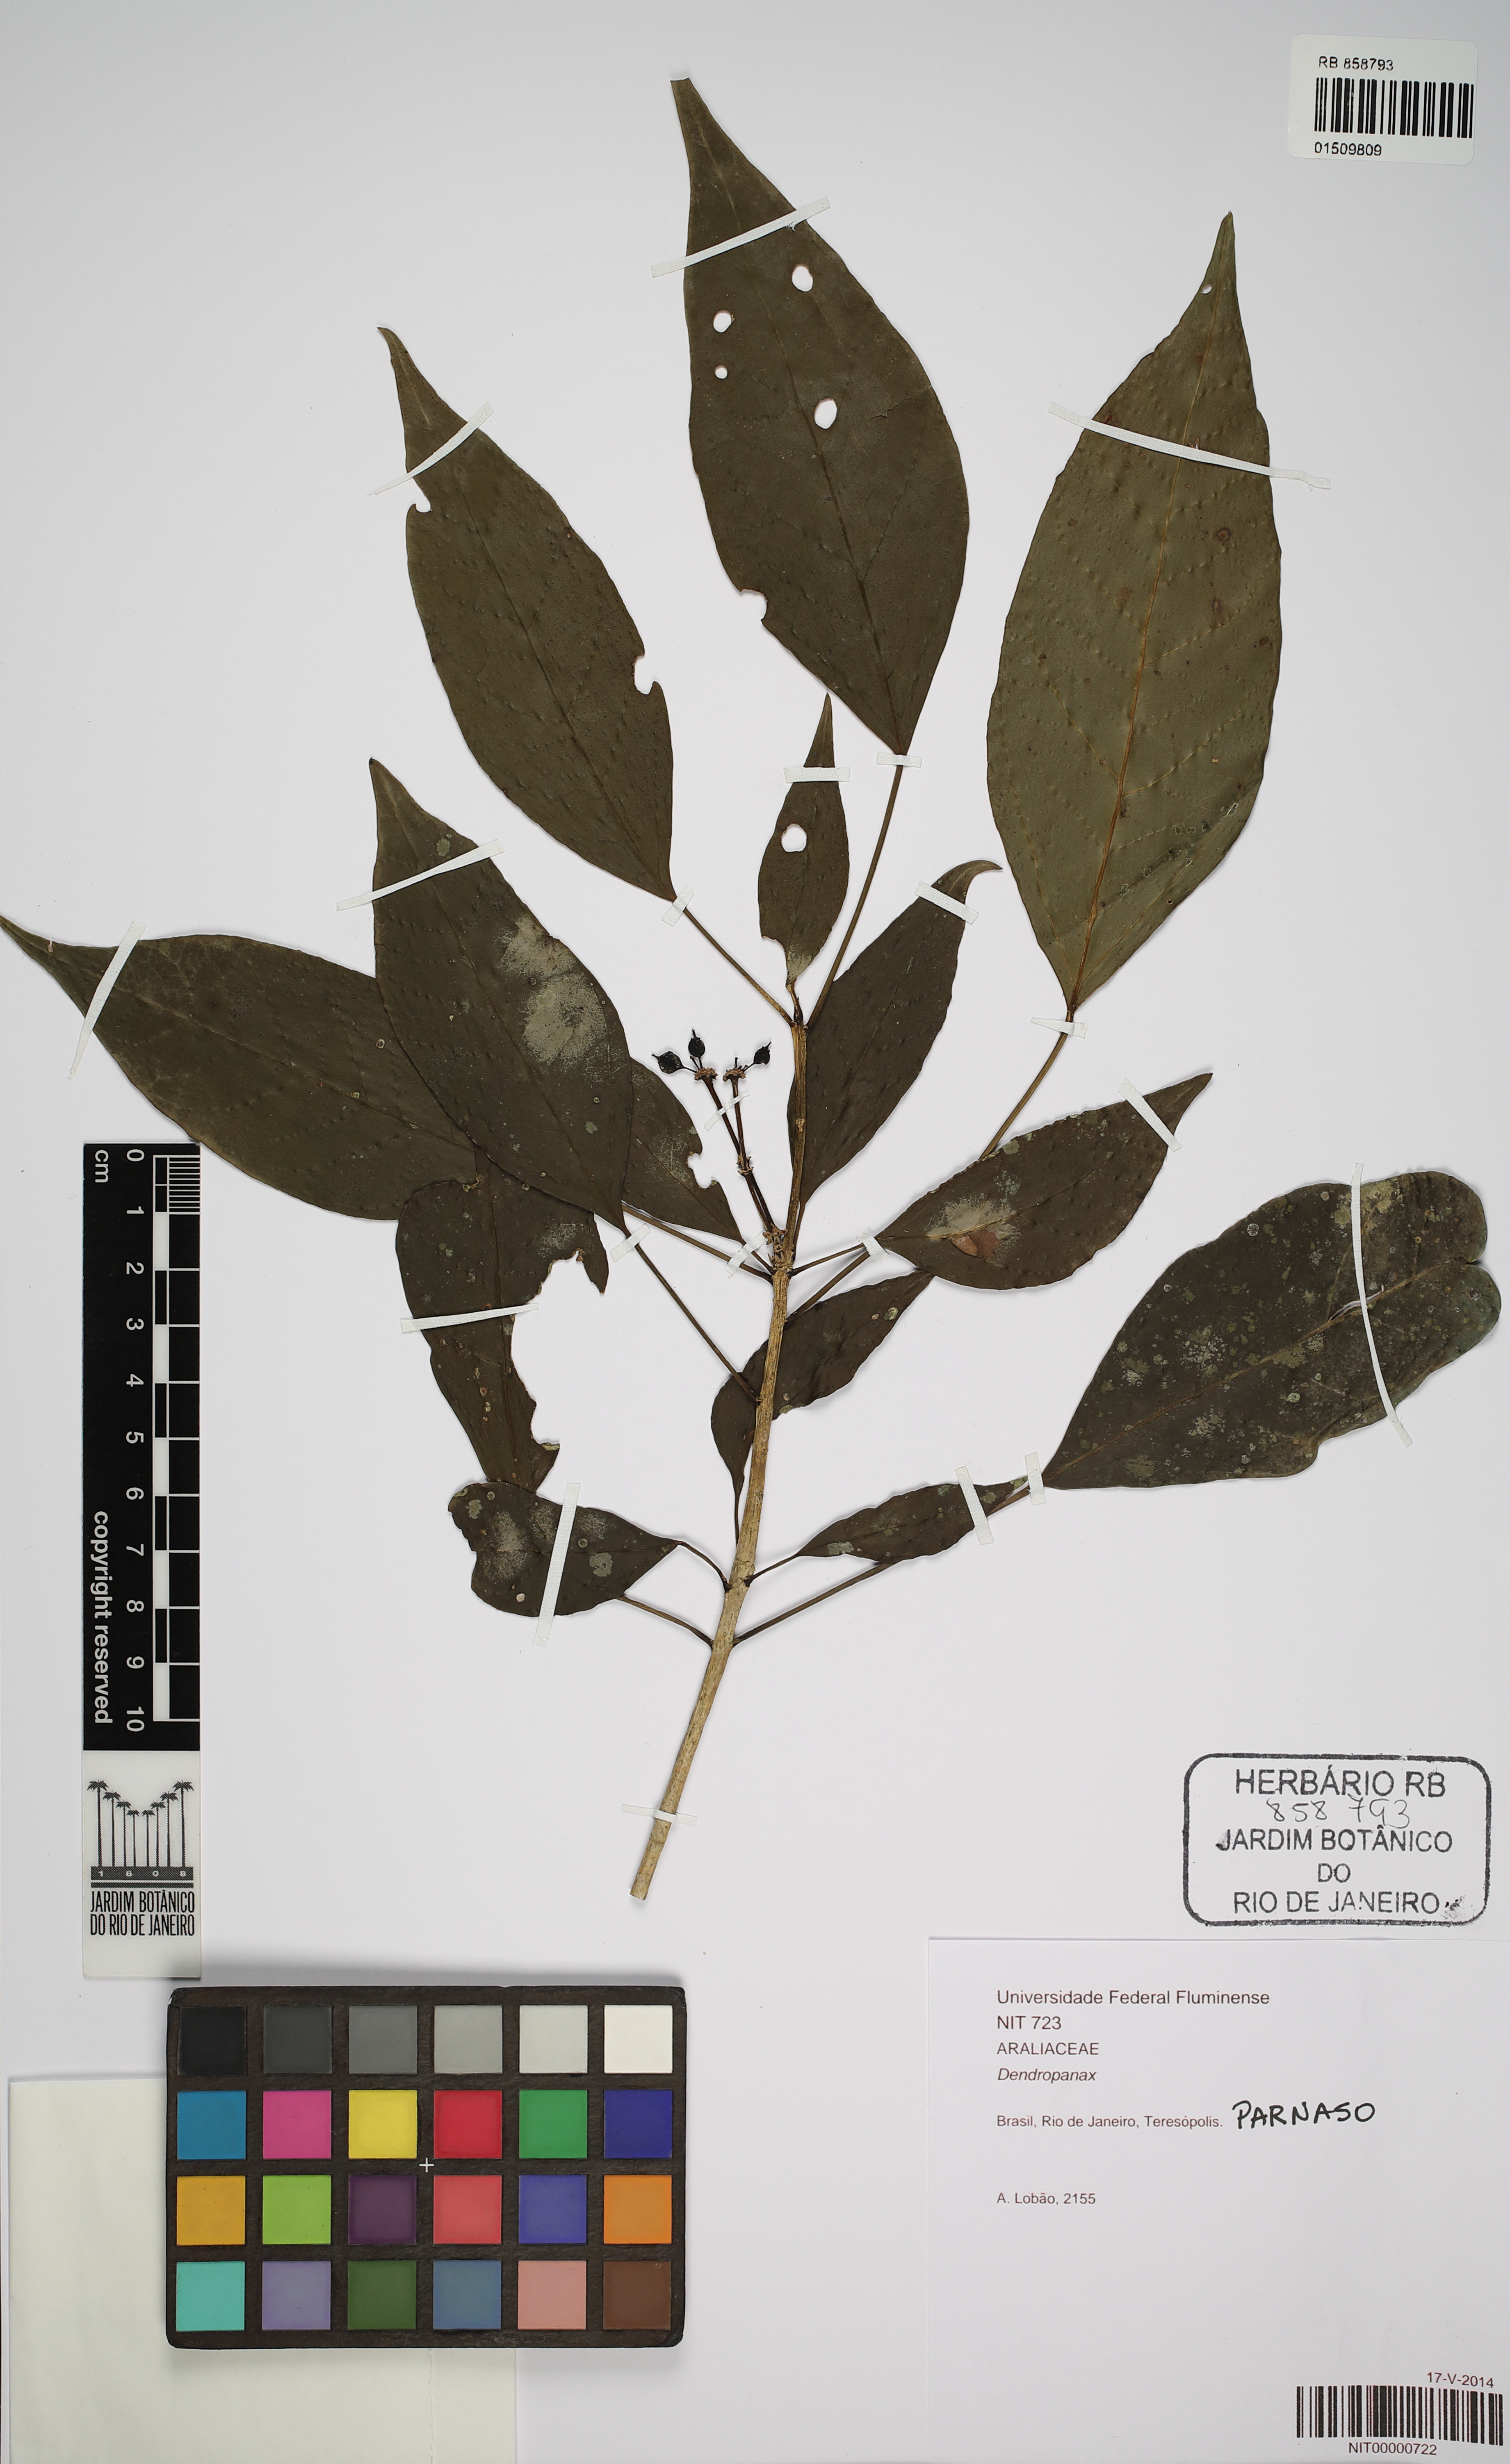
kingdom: Plantae
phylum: Tracheophyta
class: Magnoliopsida
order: Apiales
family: Araliaceae
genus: Dendropanax
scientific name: Dendropanax trilobus
